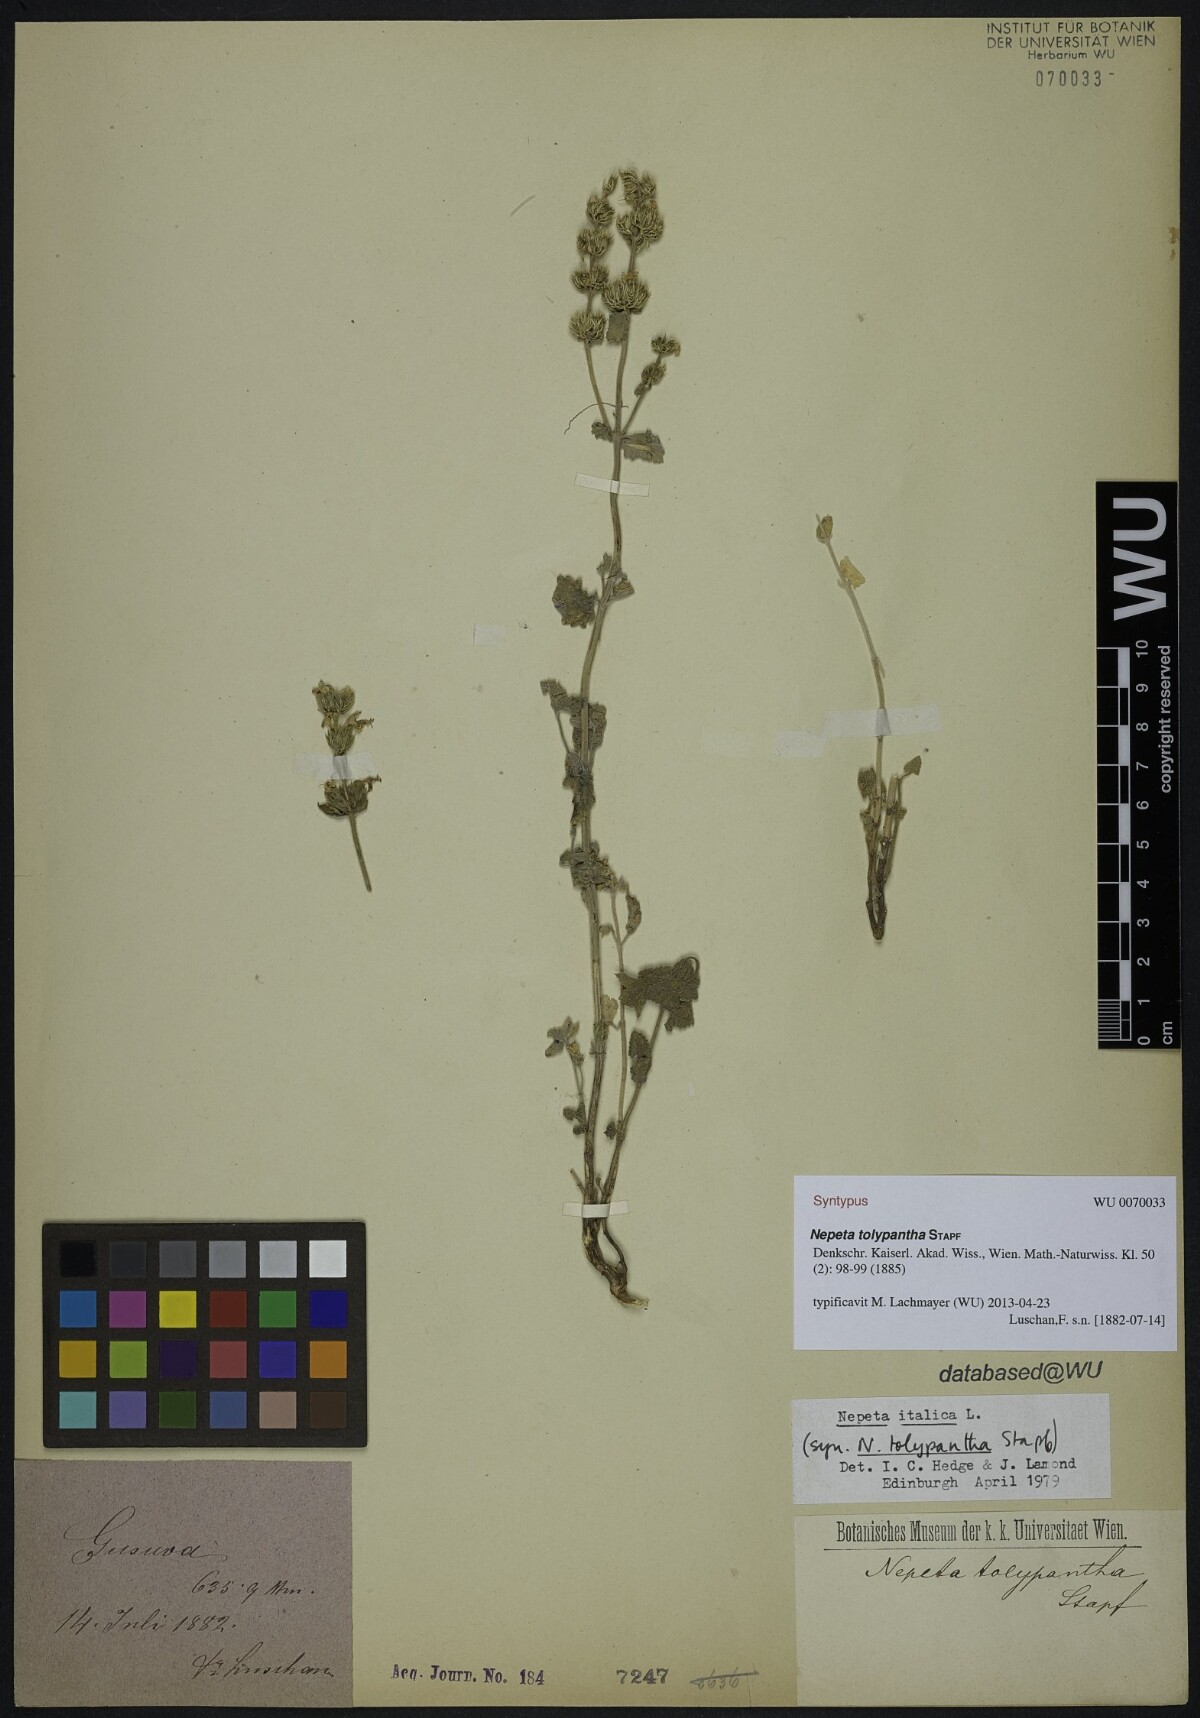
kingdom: Plantae
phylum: Tracheophyta
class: Magnoliopsida
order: Lamiales
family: Lamiaceae
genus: Nepeta
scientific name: Nepeta tolypantha
